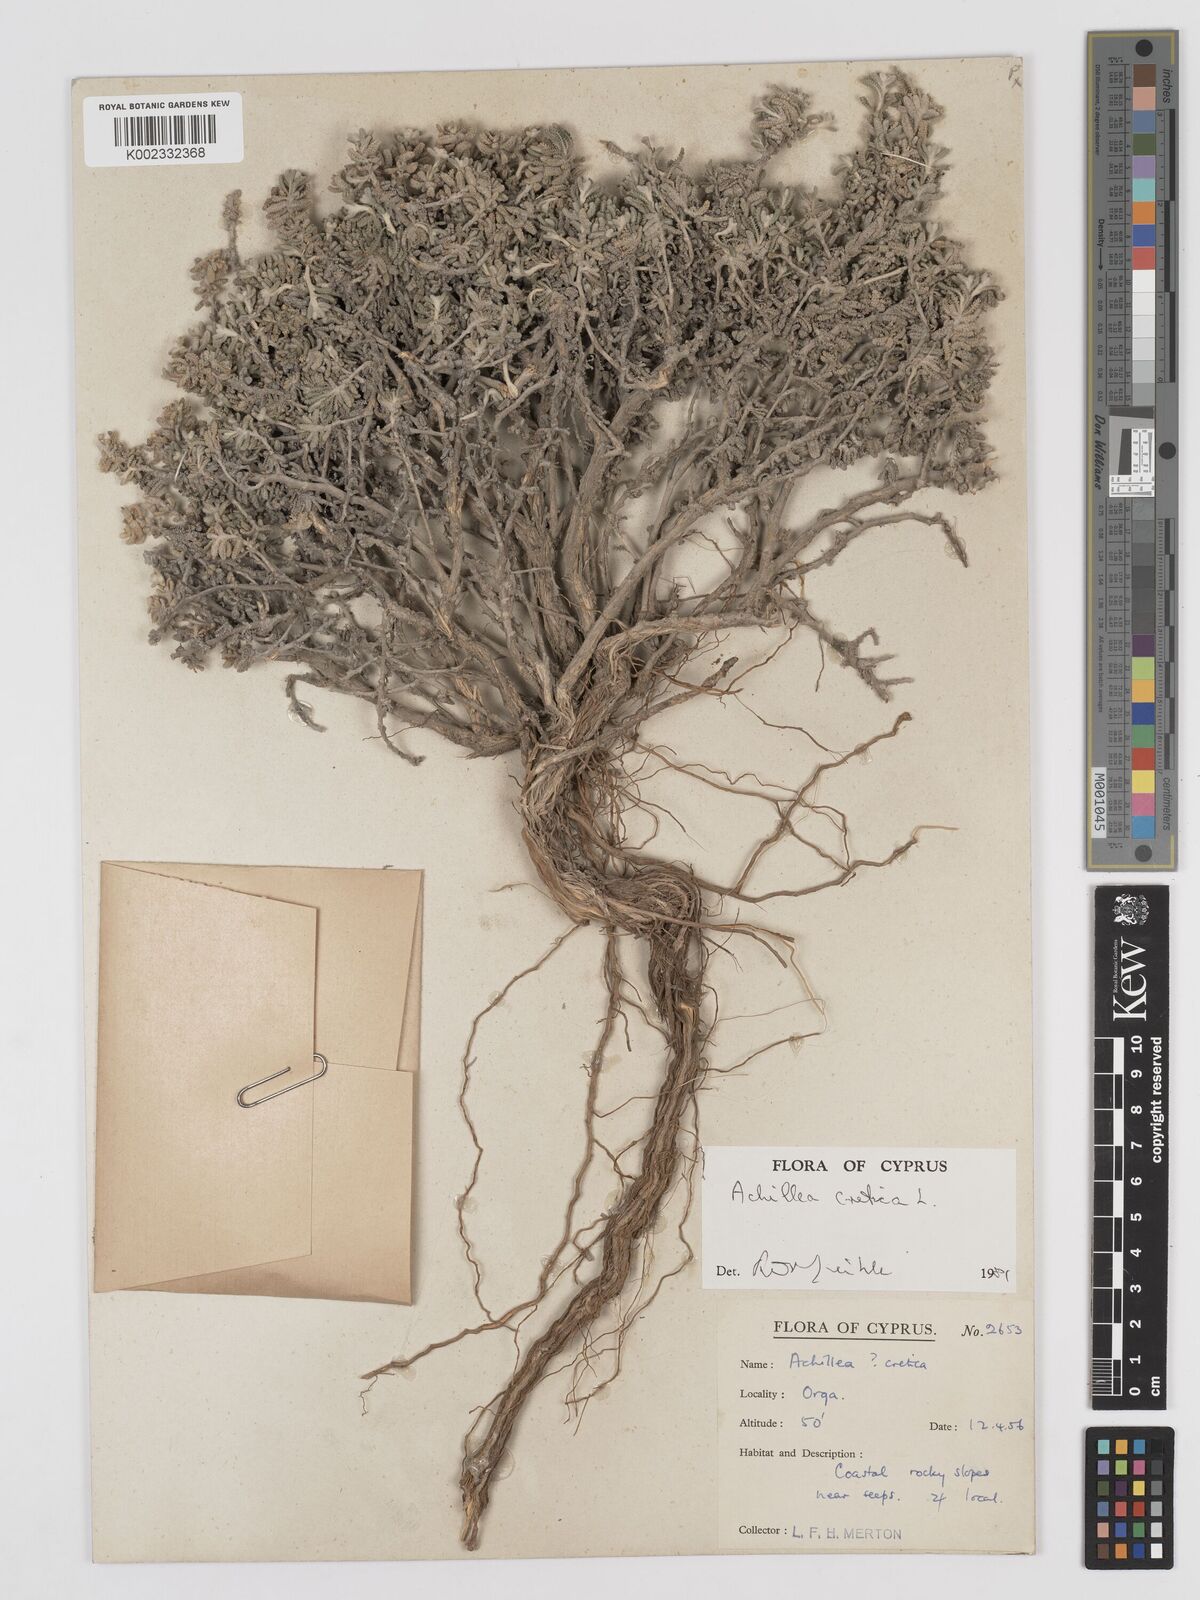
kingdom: Plantae
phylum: Tracheophyta
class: Magnoliopsida
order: Asterales
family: Asteraceae
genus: Achillea
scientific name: Achillea cretica
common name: Chamomile-leaved lavender-cotton
